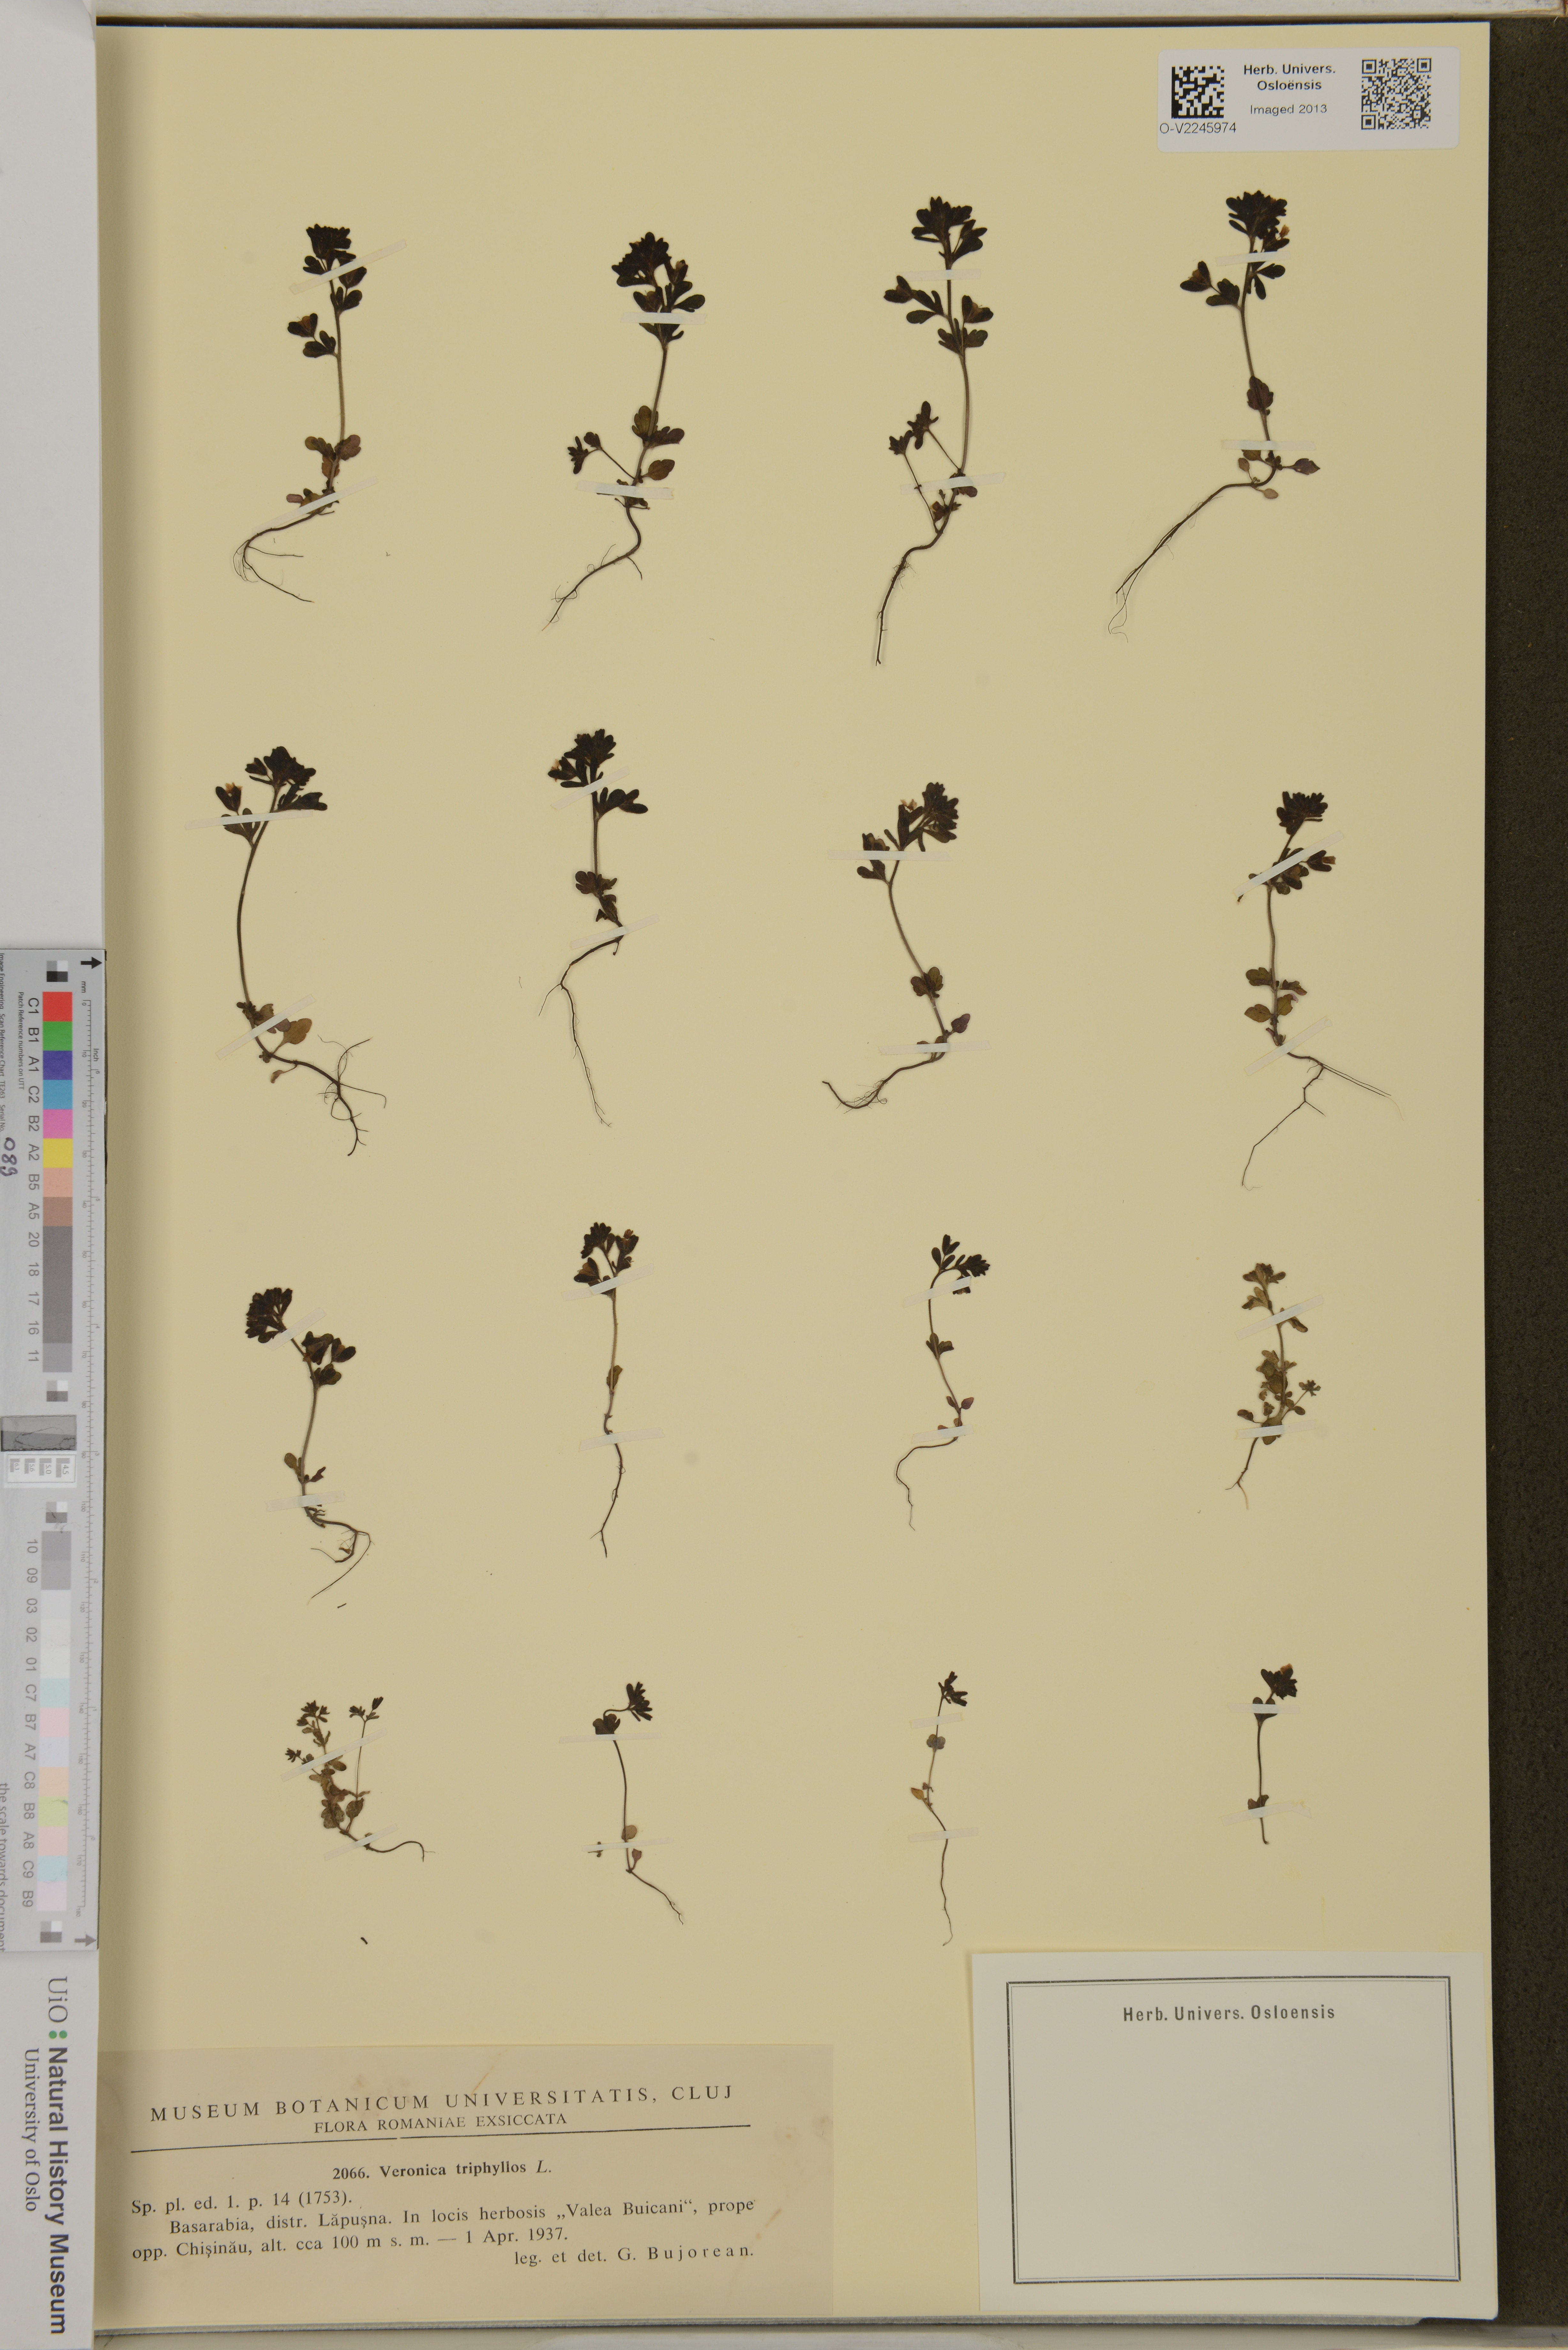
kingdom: Plantae
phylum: Tracheophyta
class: Magnoliopsida
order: Lamiales
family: Plantaginaceae
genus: Veronica
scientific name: Veronica triphyllos
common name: Fingered speedwell
